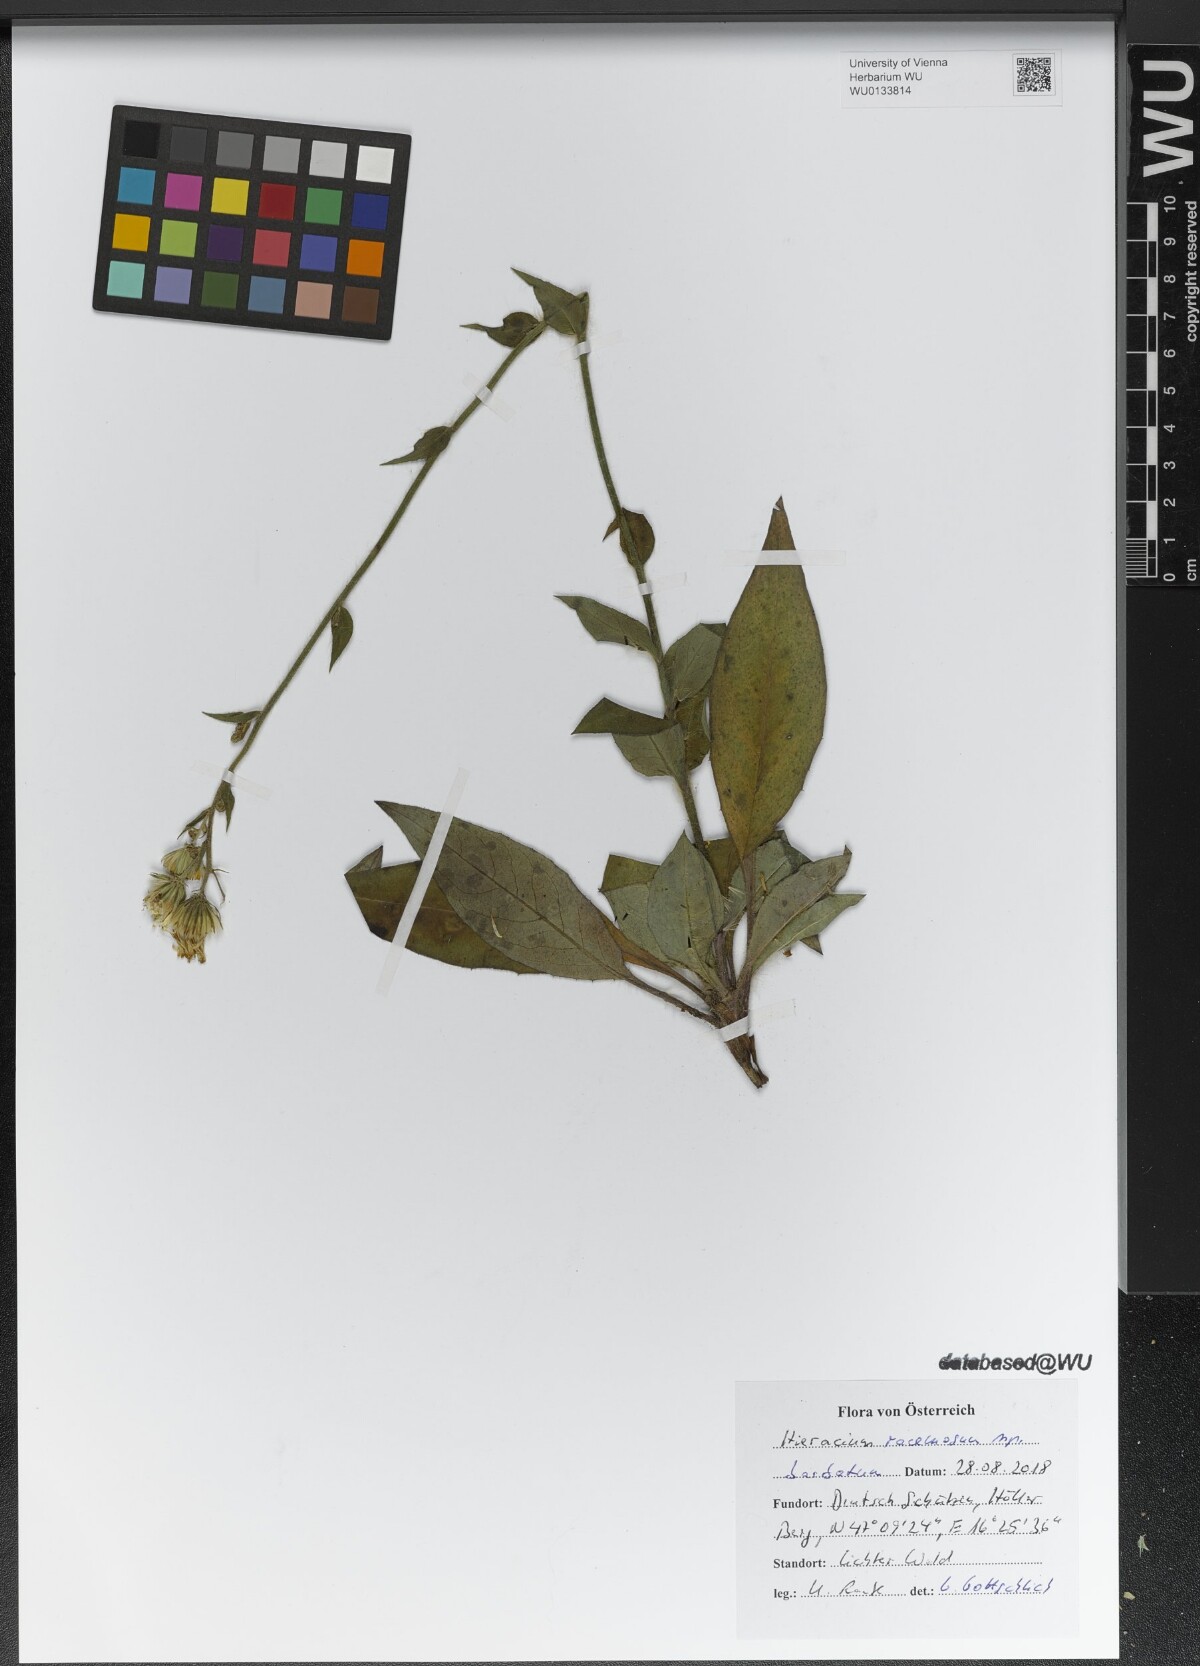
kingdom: Plantae
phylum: Tracheophyta
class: Magnoliopsida
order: Asterales
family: Asteraceae
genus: Hieracium
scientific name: Hieracium racemosum
